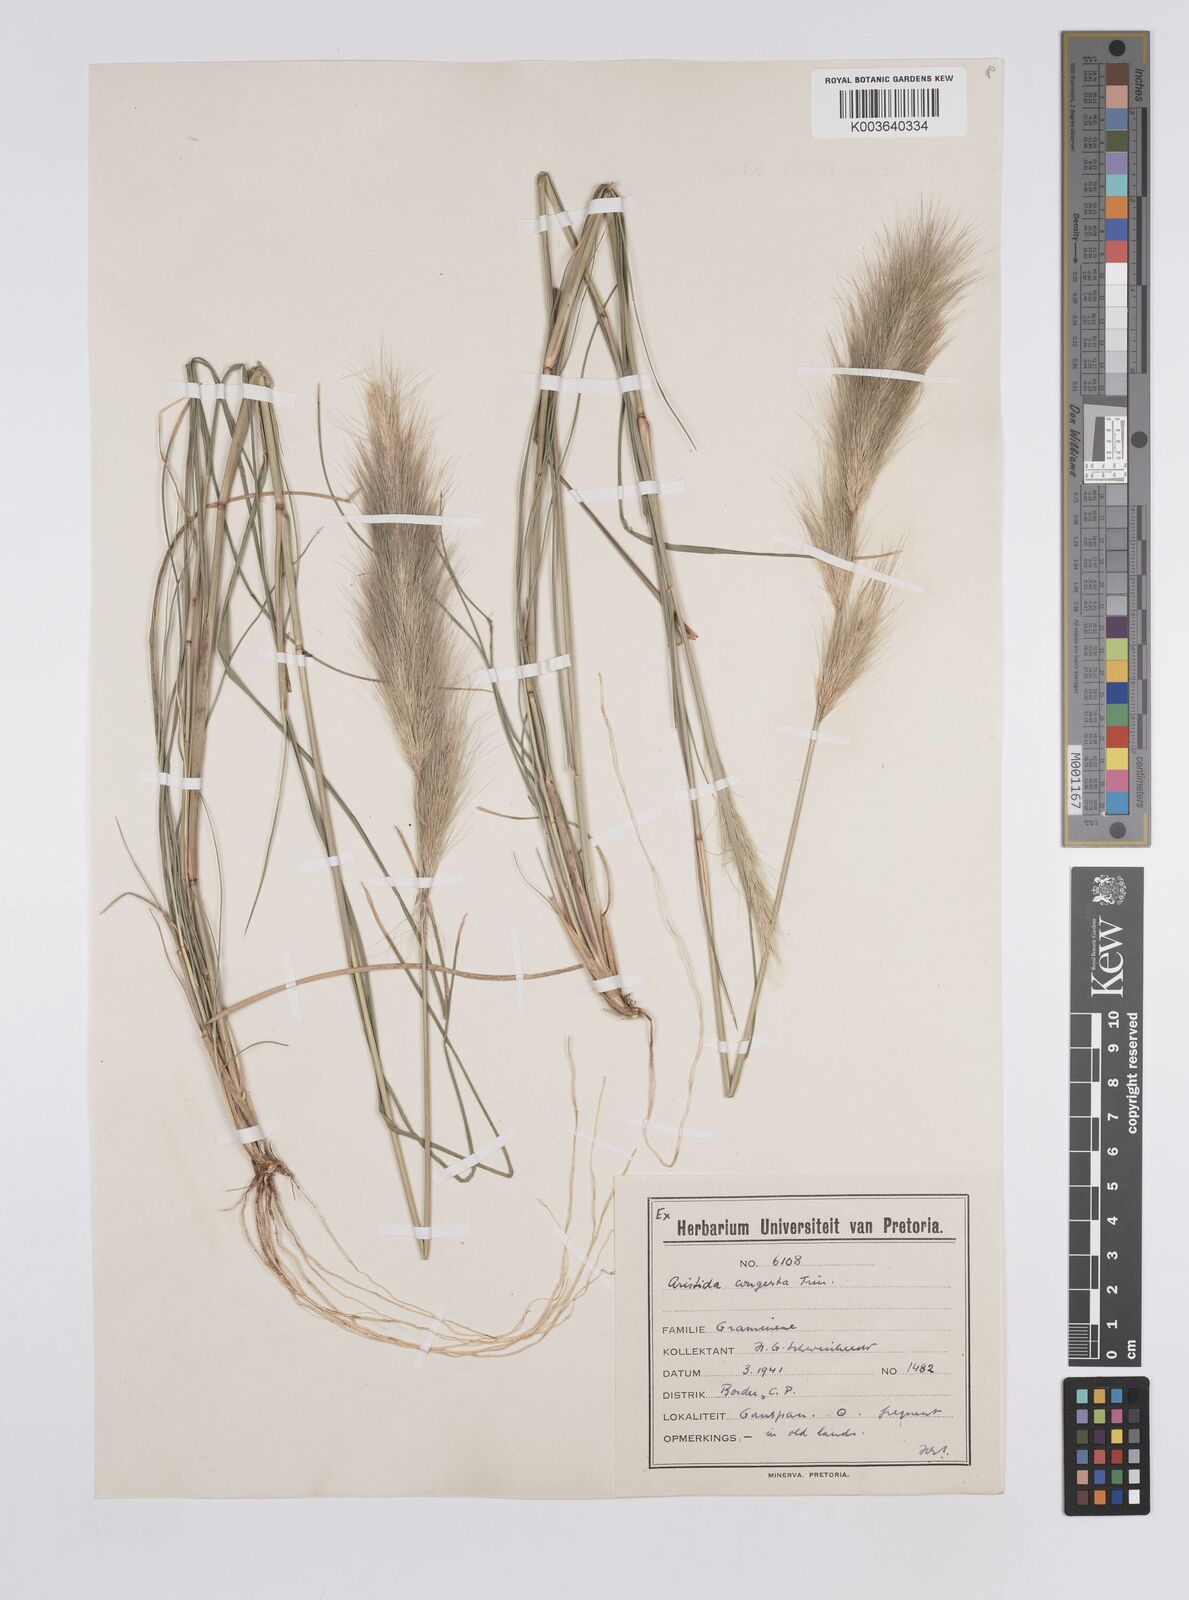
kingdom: Plantae
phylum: Tracheophyta
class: Liliopsida
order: Poales
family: Poaceae
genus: Aristida
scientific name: Aristida congesta
